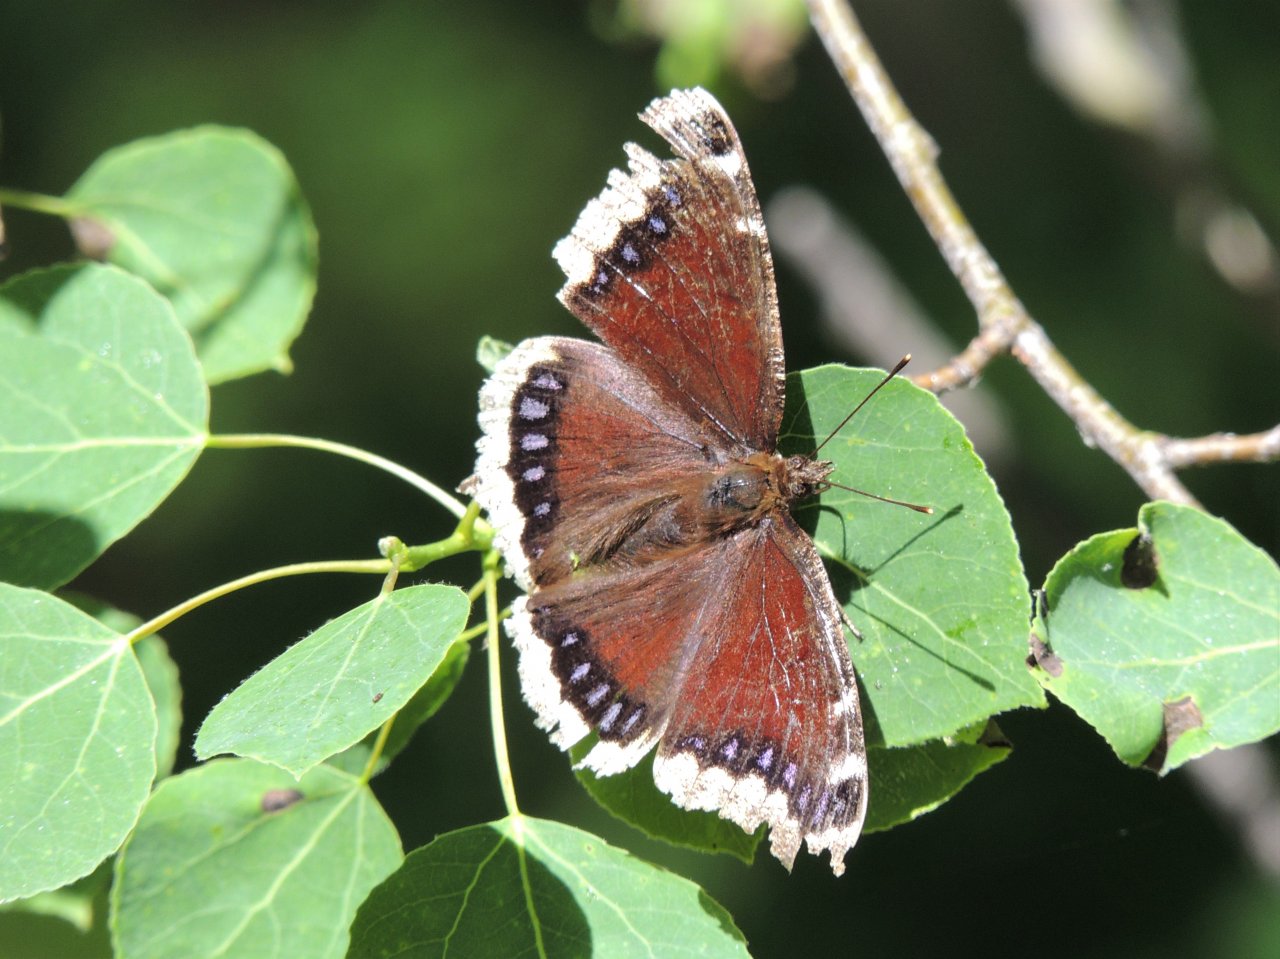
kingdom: Animalia
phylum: Arthropoda
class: Insecta
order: Lepidoptera
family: Nymphalidae
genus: Nymphalis
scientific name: Nymphalis antiopa
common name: Mourning Cloak
